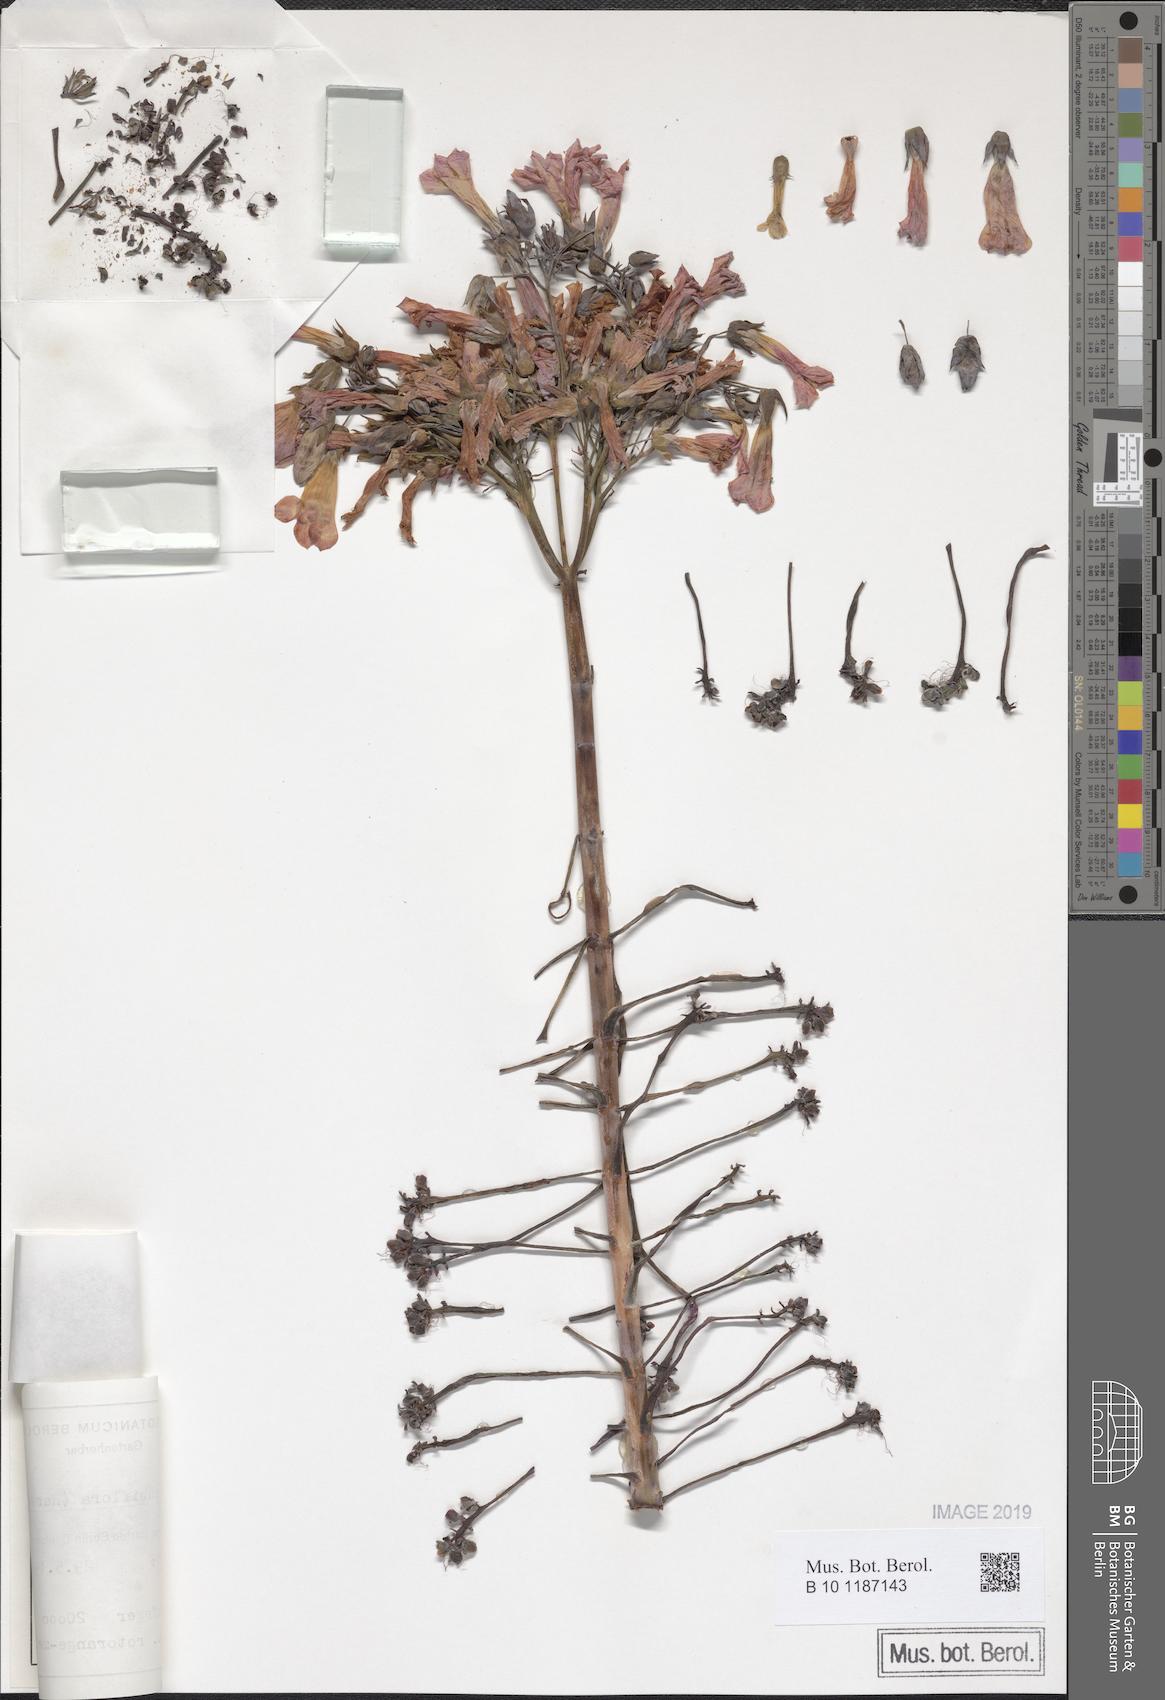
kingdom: Plantae
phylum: Tracheophyta
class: Magnoliopsida
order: Saxifragales
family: Crassulaceae
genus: Kalanchoe
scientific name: Kalanchoe delagoensis
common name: Chandelier plant
